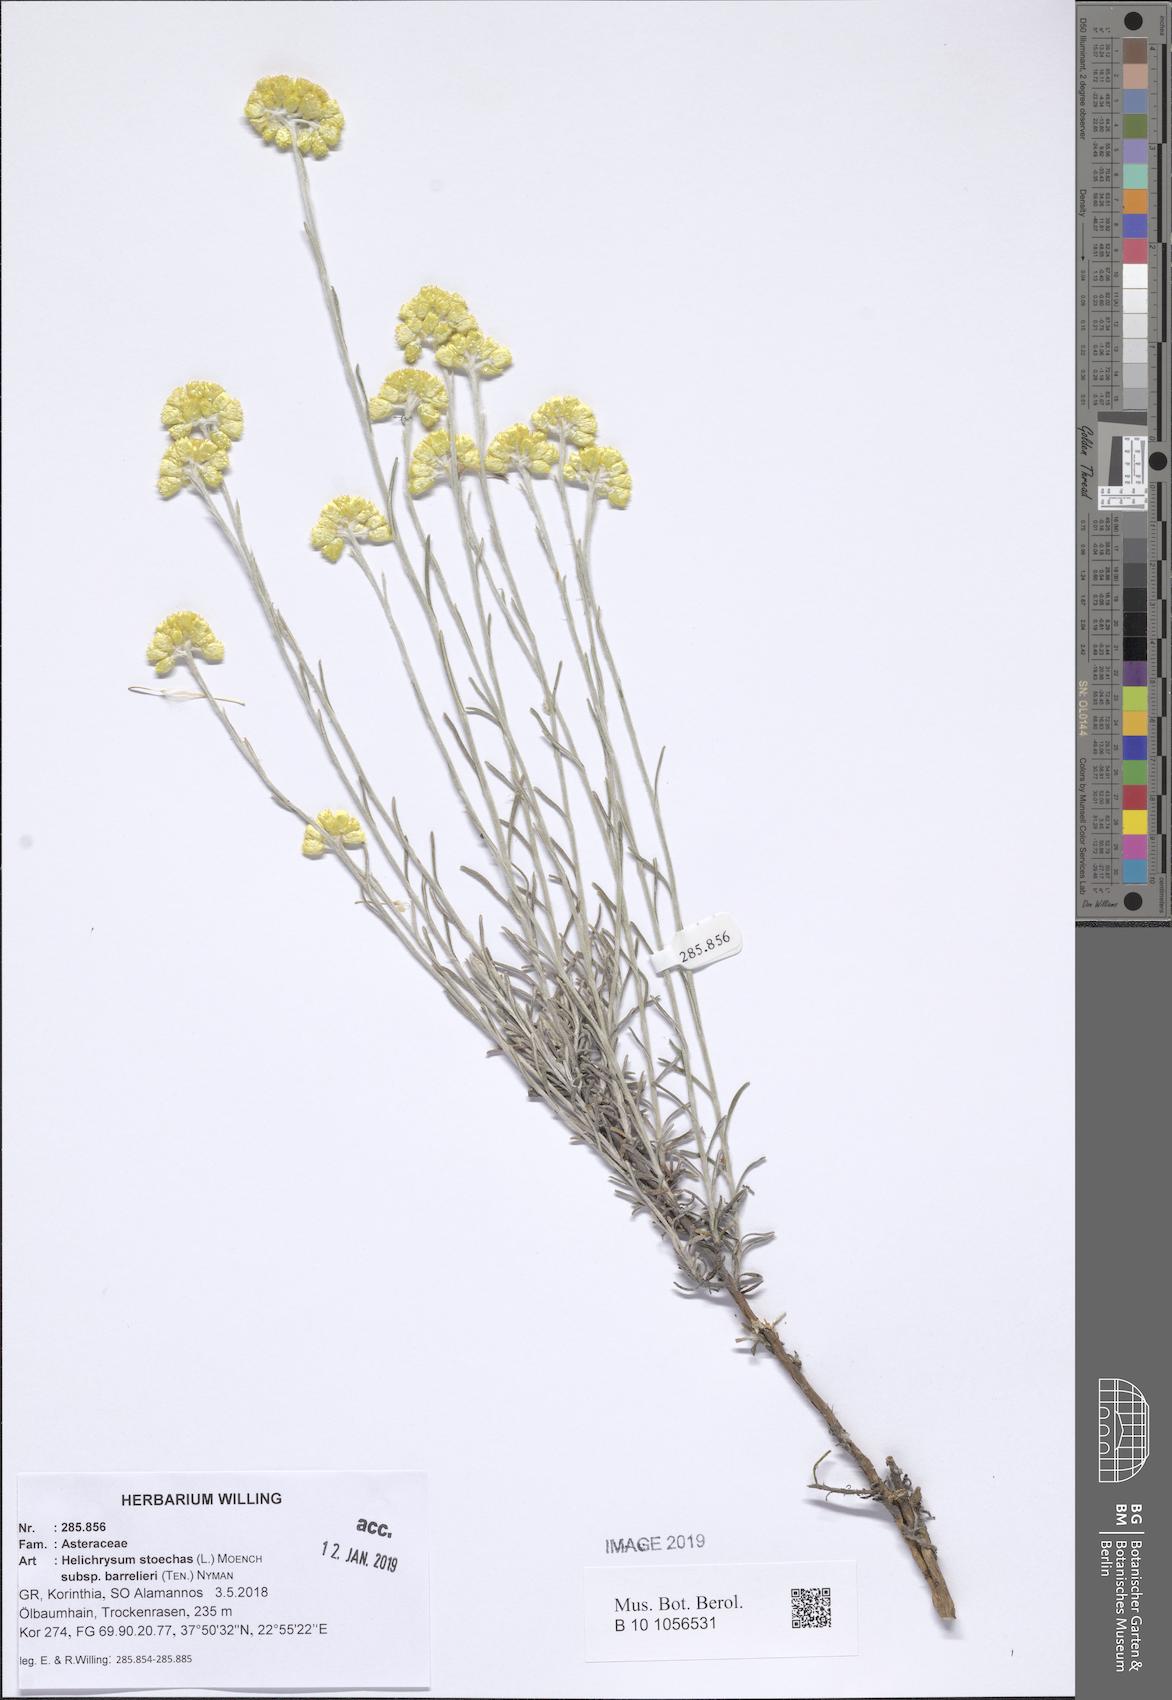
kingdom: Plantae
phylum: Tracheophyta
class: Magnoliopsida
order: Asterales
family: Asteraceae
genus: Helichrysum
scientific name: Helichrysum stoechas
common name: Goldilocks
